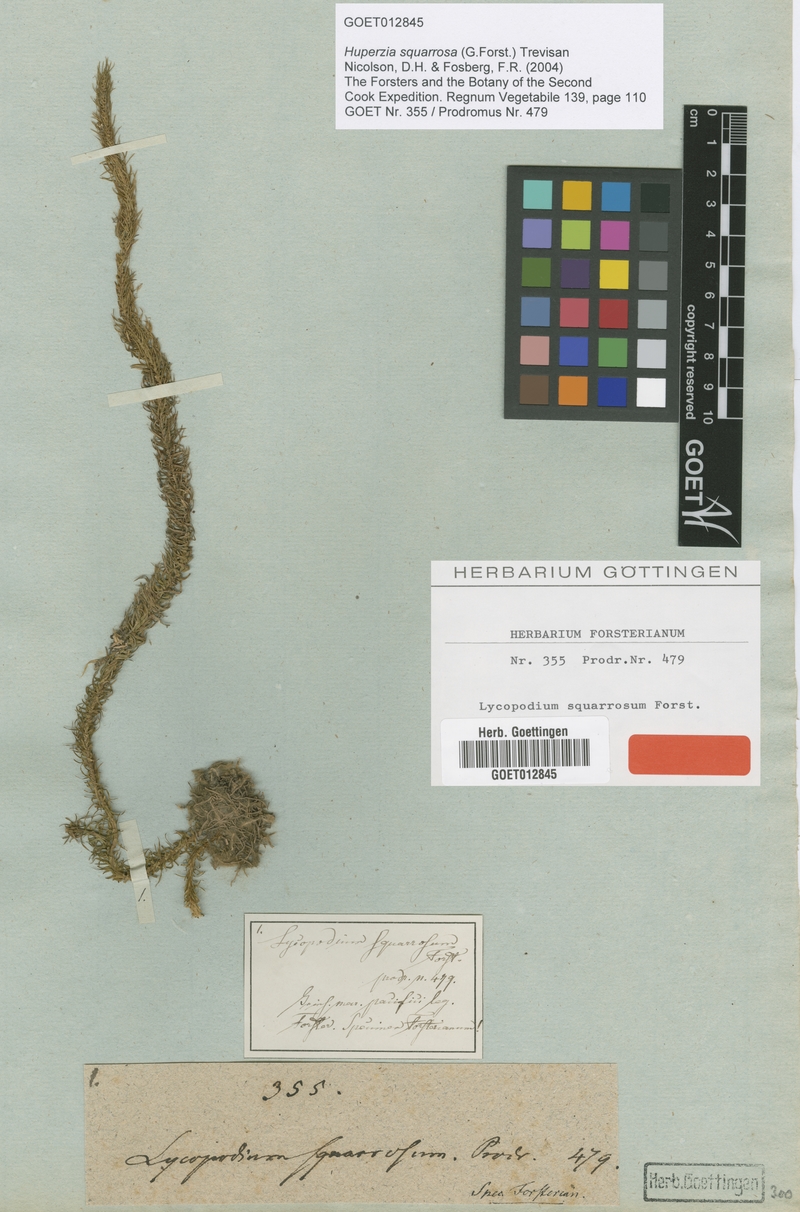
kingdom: Plantae
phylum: Tracheophyta
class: Lycopodiopsida
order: Lycopodiales
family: Lycopodiaceae
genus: Phlegmariurus
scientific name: Phlegmariurus squarrosus
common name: Rock tassel-fern
